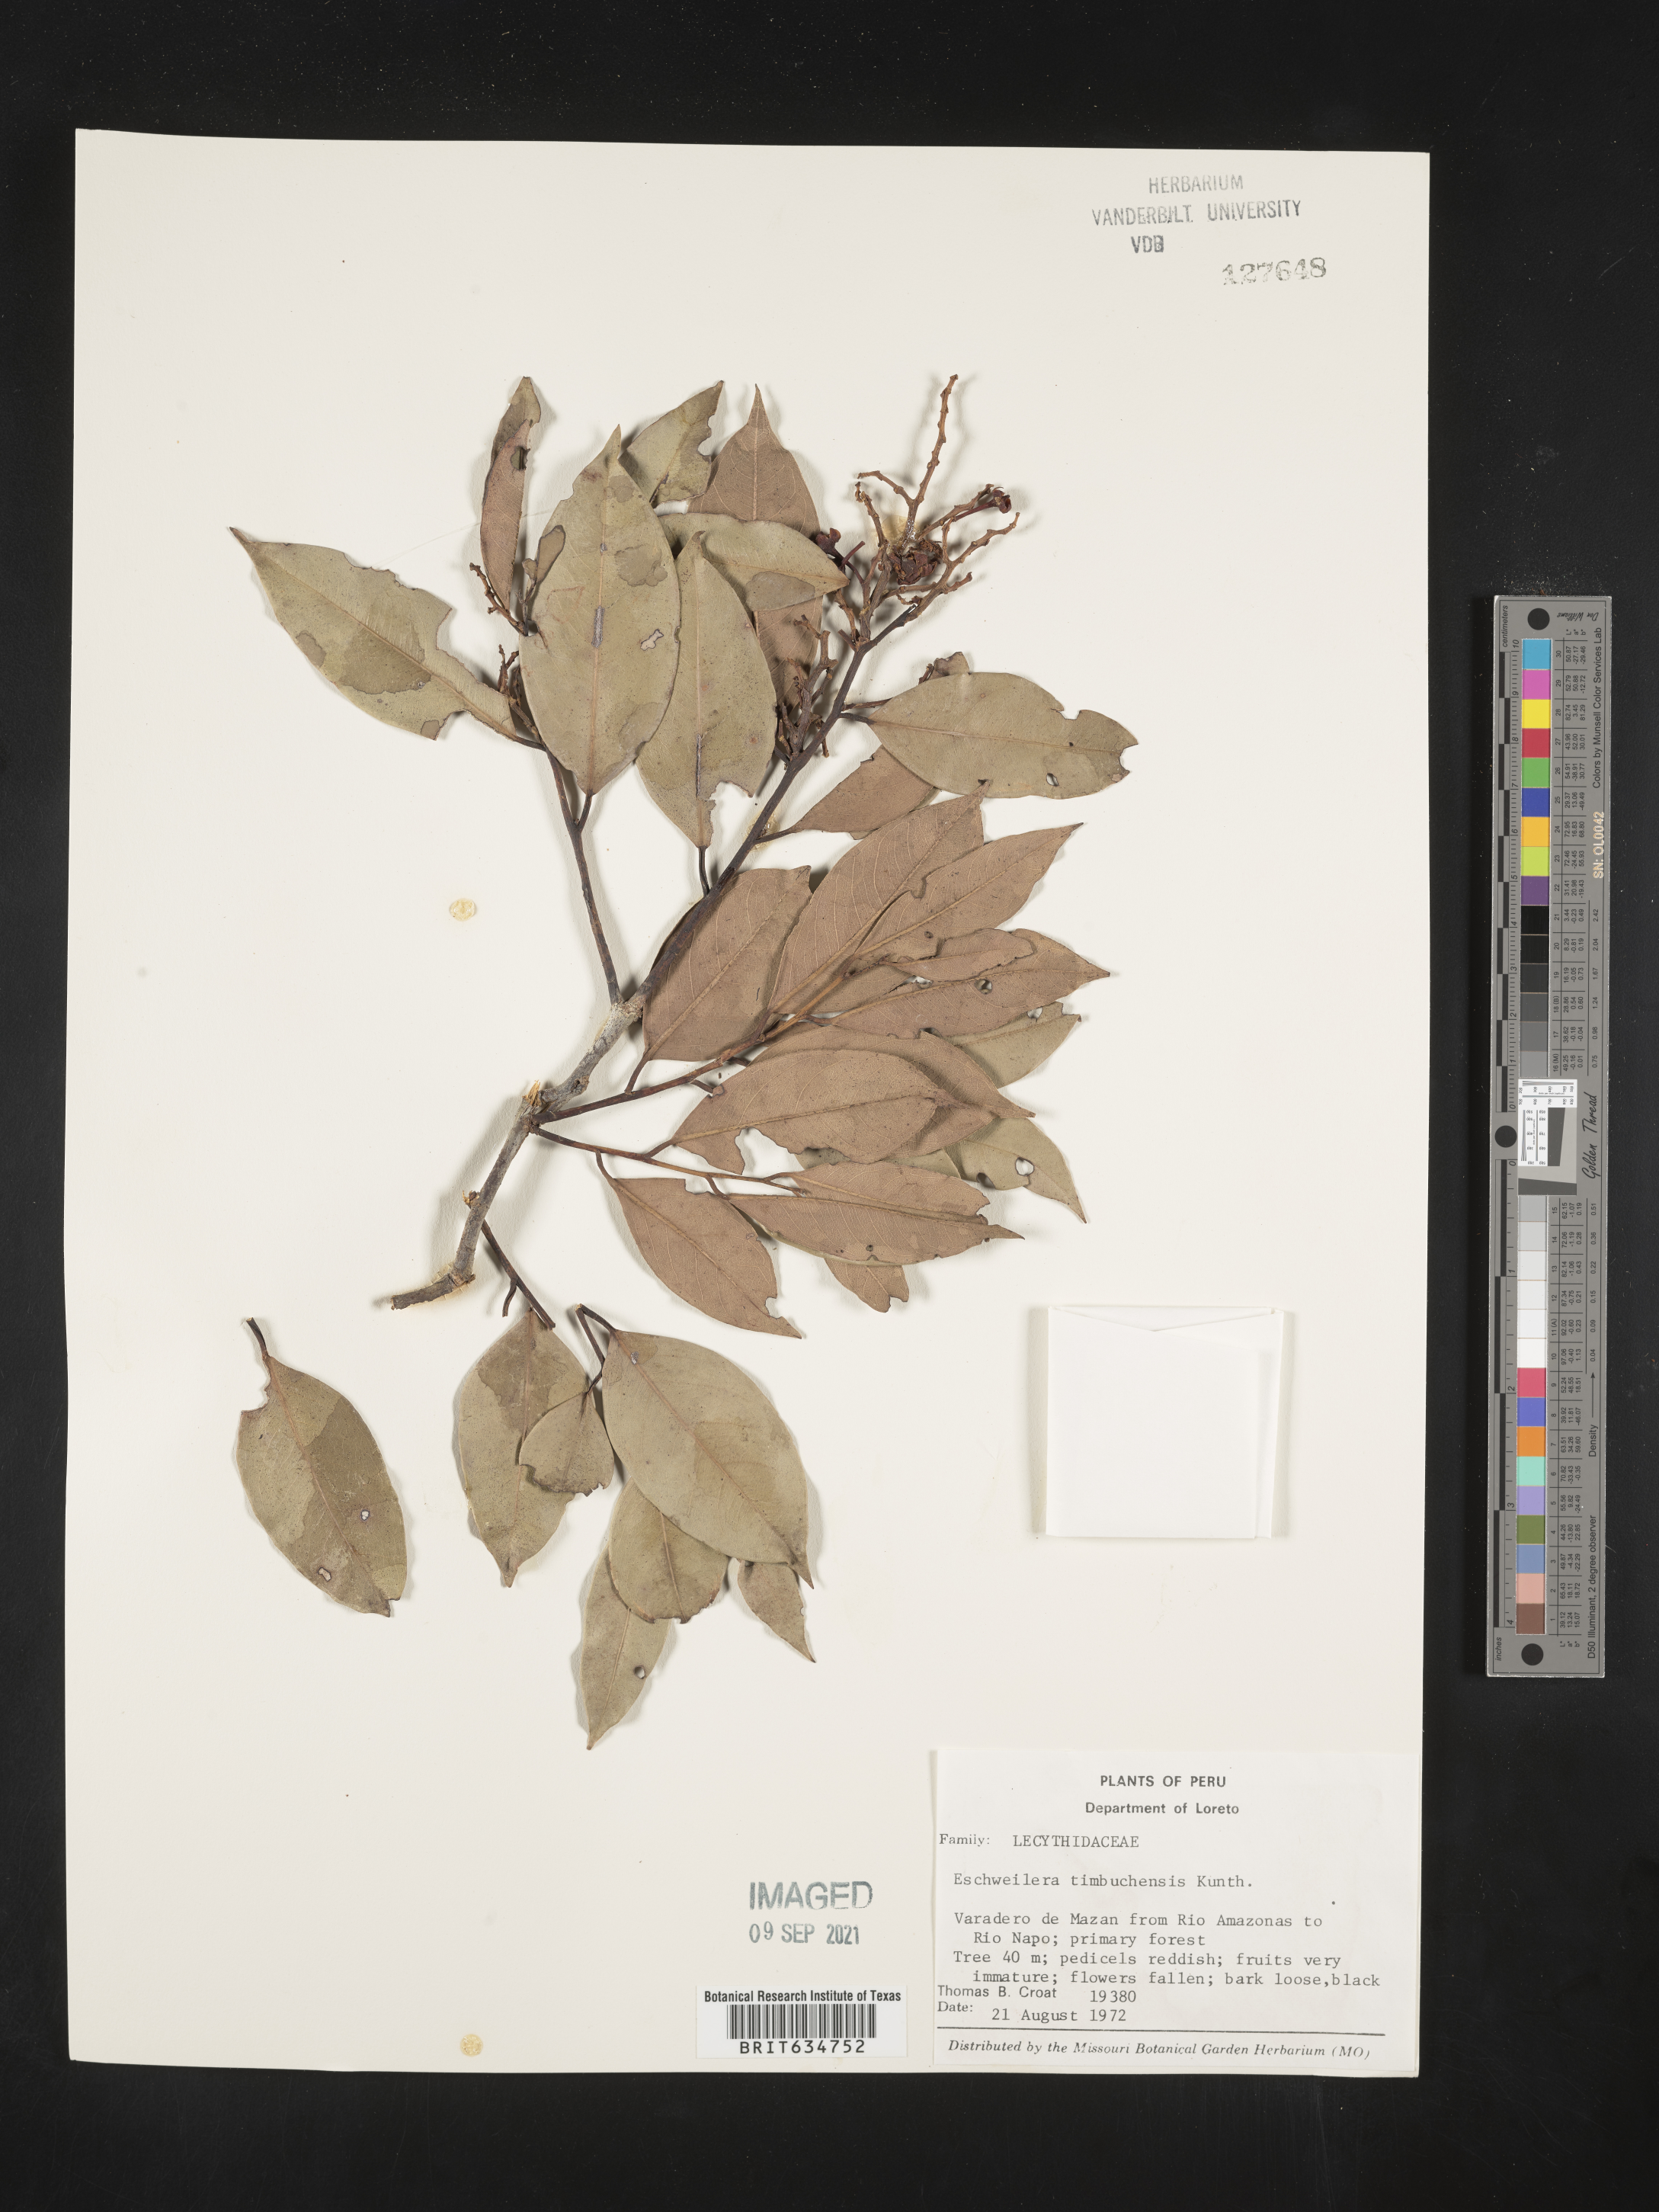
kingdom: Plantae
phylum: Tracheophyta
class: Magnoliopsida
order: Ericales
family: Lecythidaceae
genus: Eschweilera
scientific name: Eschweilera
